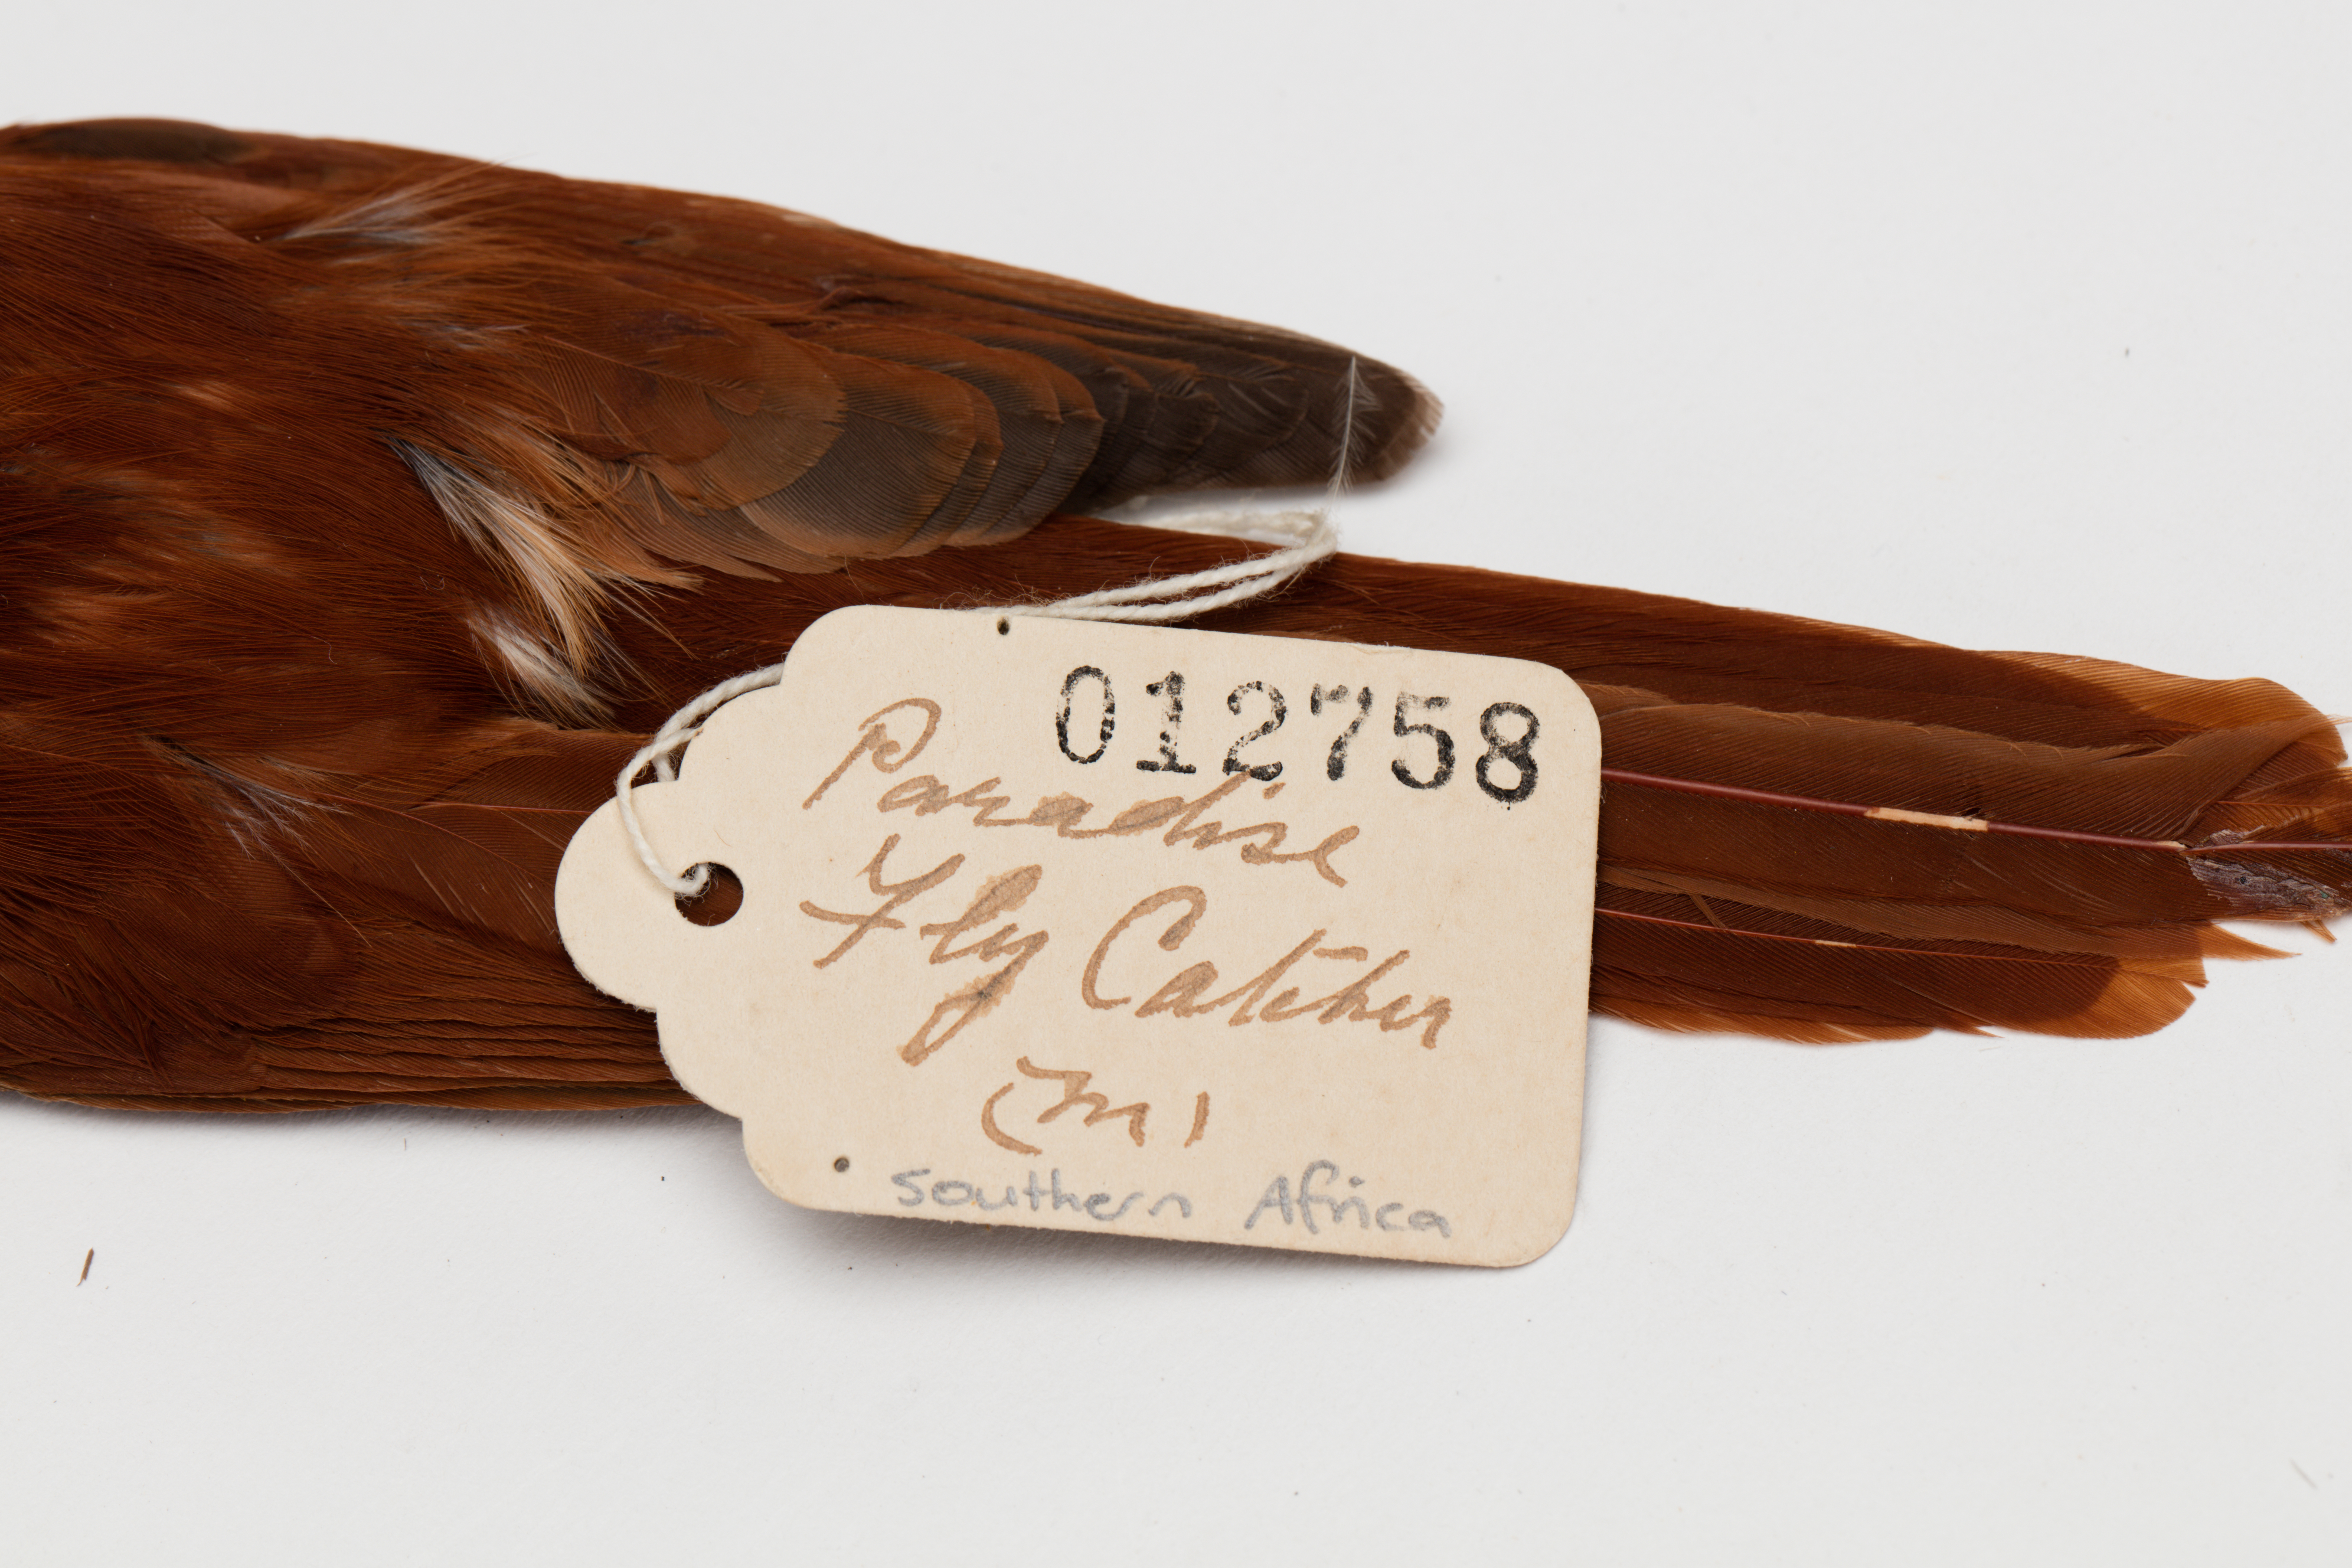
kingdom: Animalia
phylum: Chordata
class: Aves
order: Passeriformes
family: Monarchidae
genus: Terpsiphone
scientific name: Terpsiphone paradisi
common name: Indian paradise flycatcher
